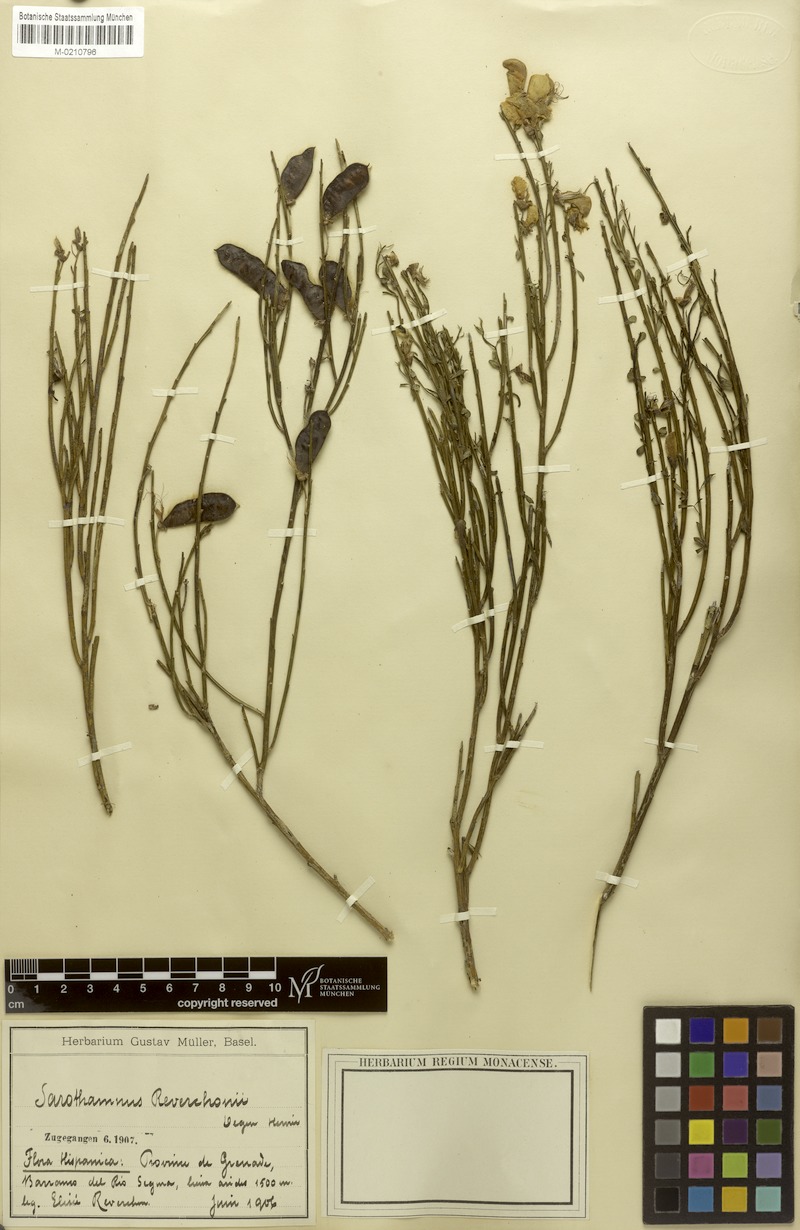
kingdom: Plantae
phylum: Tracheophyta
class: Magnoliopsida
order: Fabales
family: Fabaceae
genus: Cytisus
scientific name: Cytisus scoparius
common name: Scotch broom
